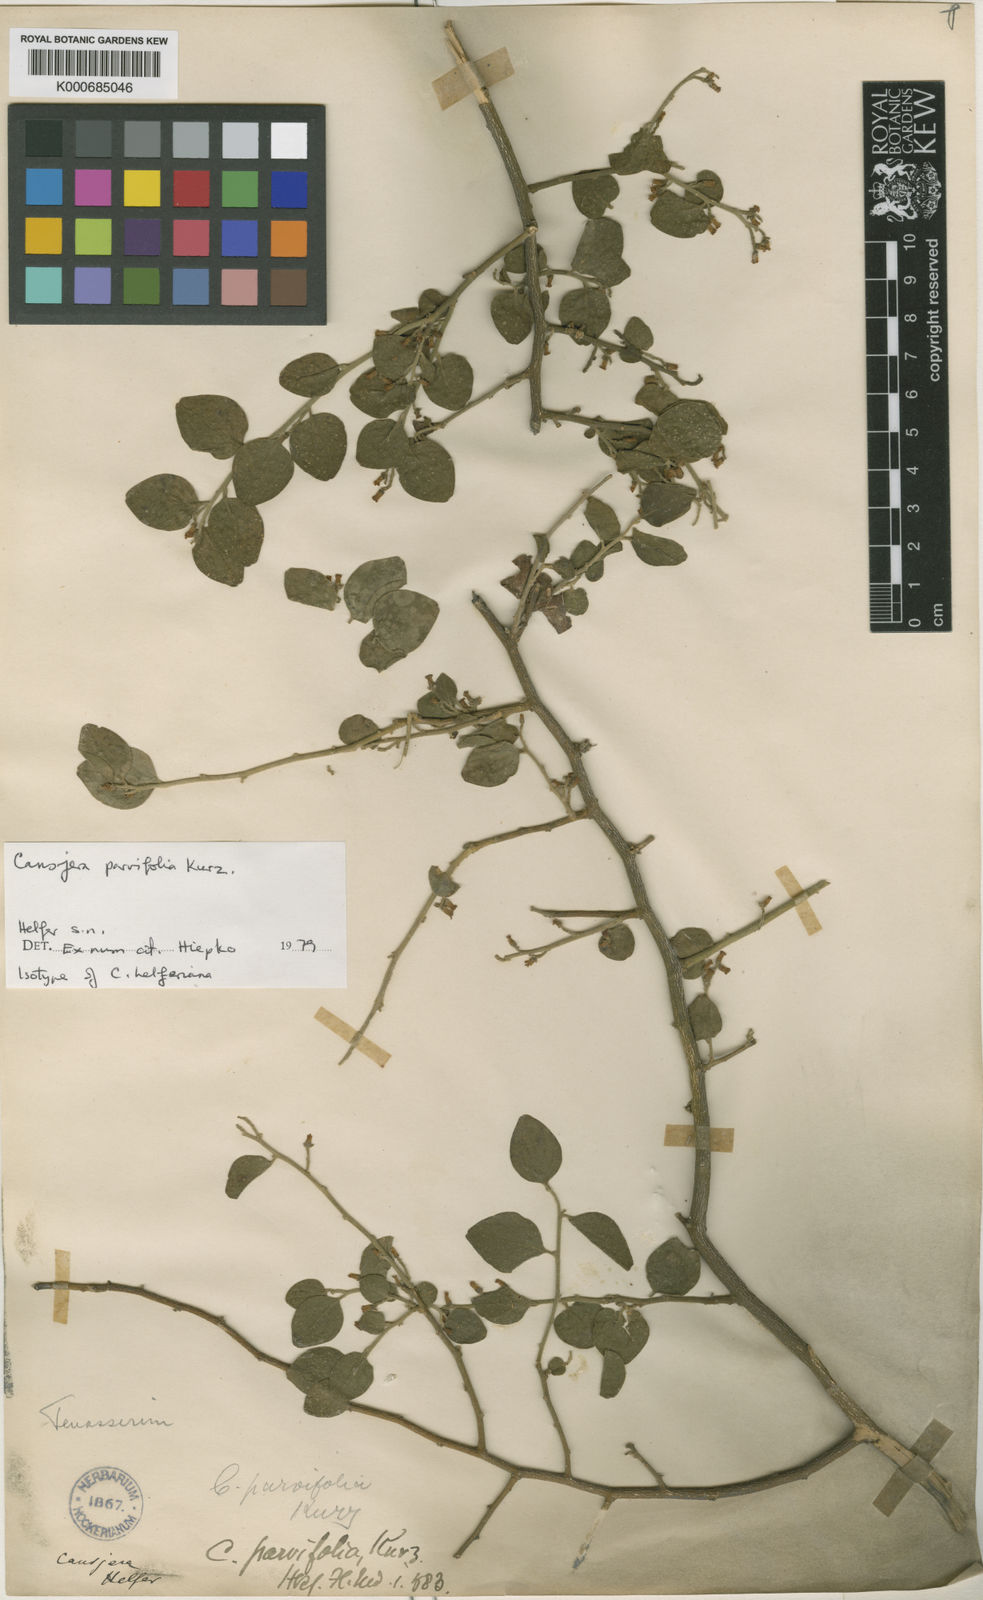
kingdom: Plantae
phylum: Tracheophyta
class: Magnoliopsida
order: Santalales
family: Opiliaceae
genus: Cansjera
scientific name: Cansjera parvifolia
